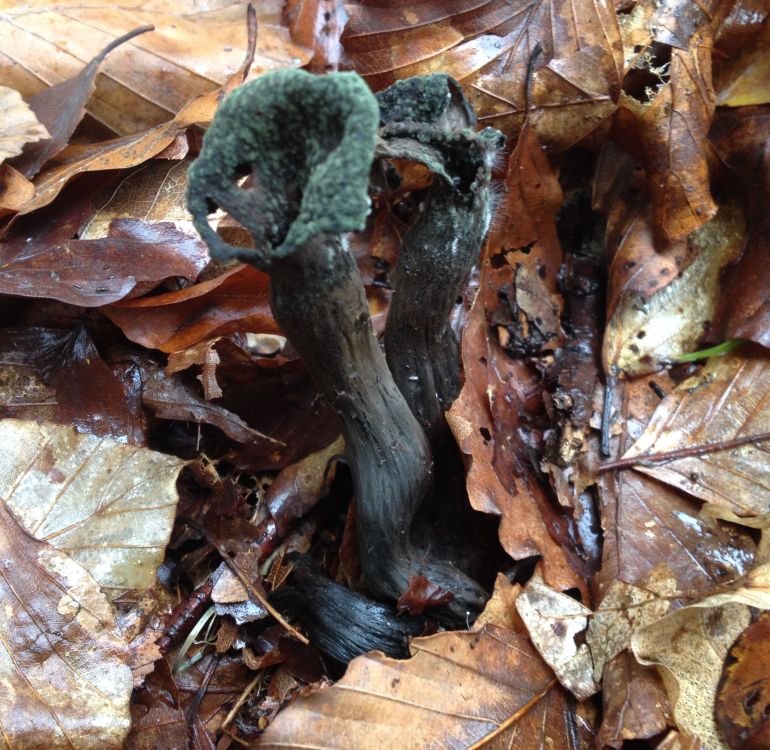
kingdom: Fungi
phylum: Basidiomycota
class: Agaricomycetes
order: Cantharellales
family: Hydnaceae
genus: Craterellus
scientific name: Craterellus cornucopioides
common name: trompetsvamp
